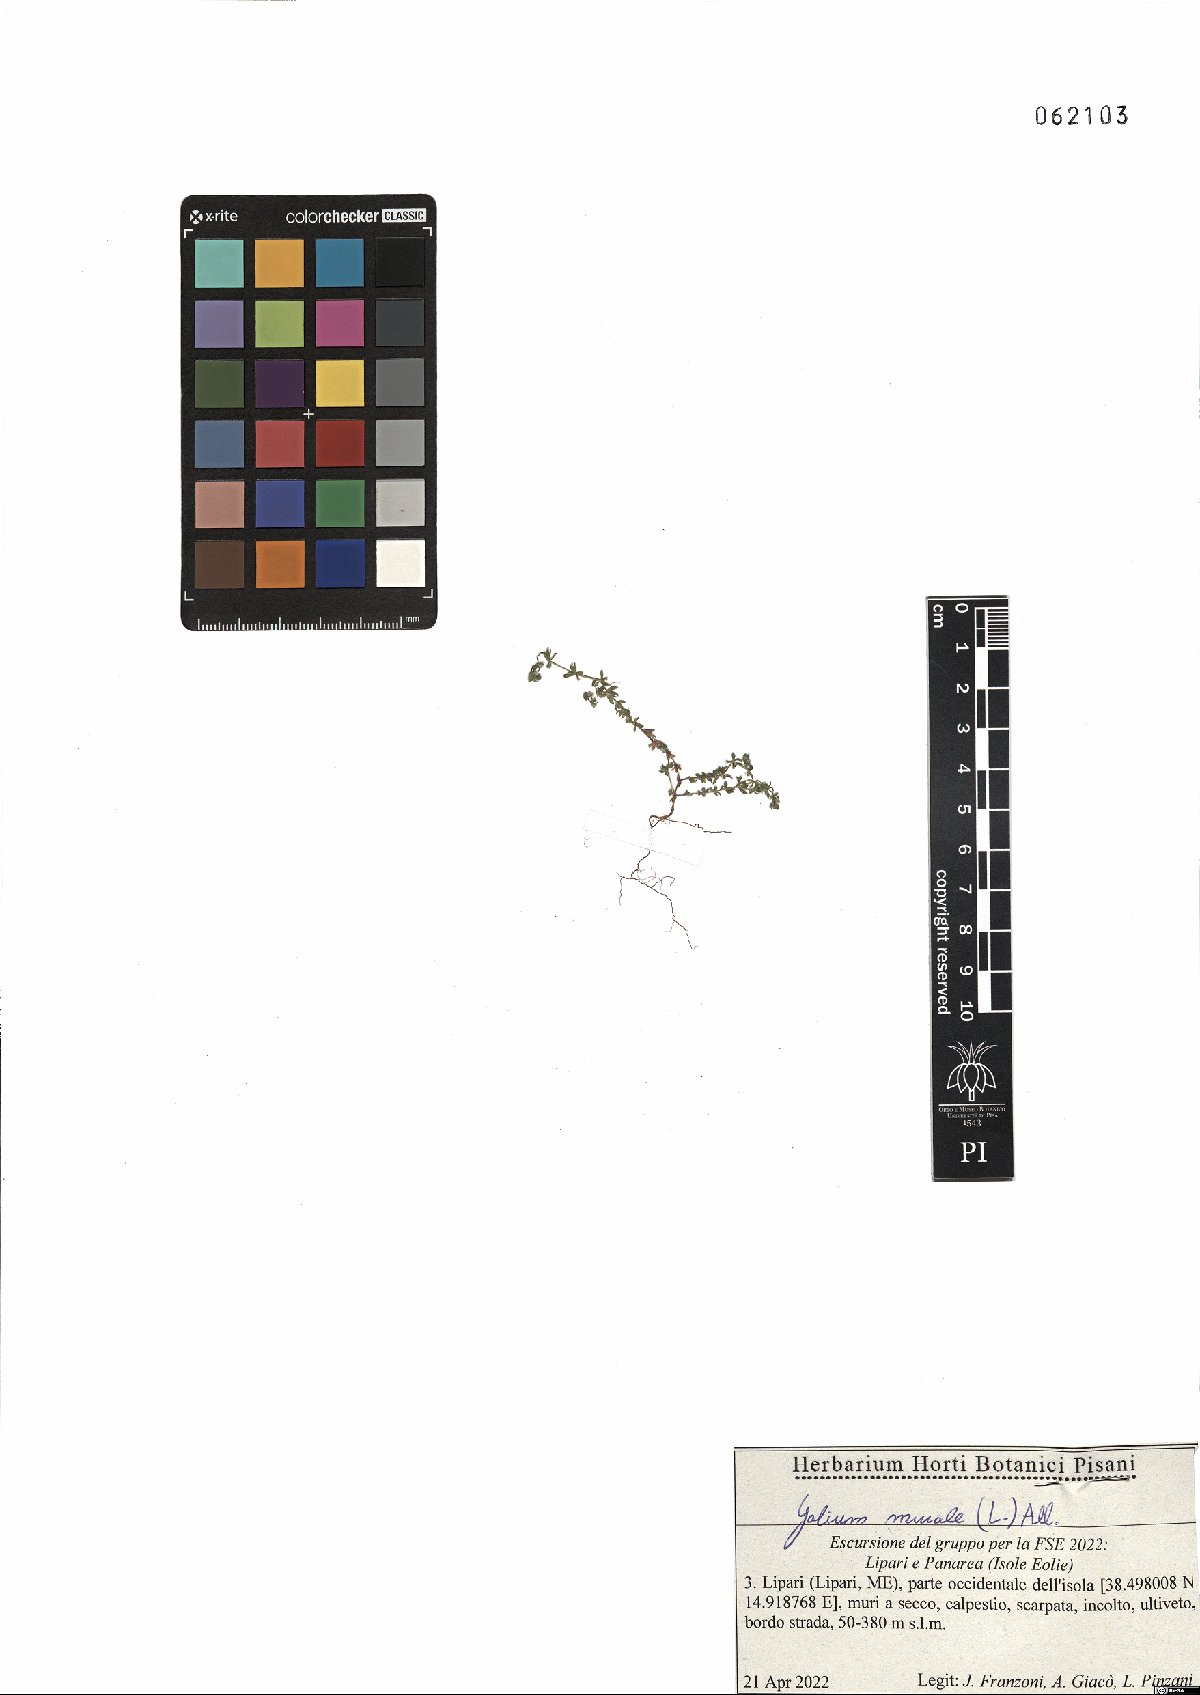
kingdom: Plantae
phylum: Tracheophyta
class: Magnoliopsida
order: Gentianales
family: Rubiaceae
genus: Galium
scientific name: Galium murale
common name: Yellow wall bedstraw
